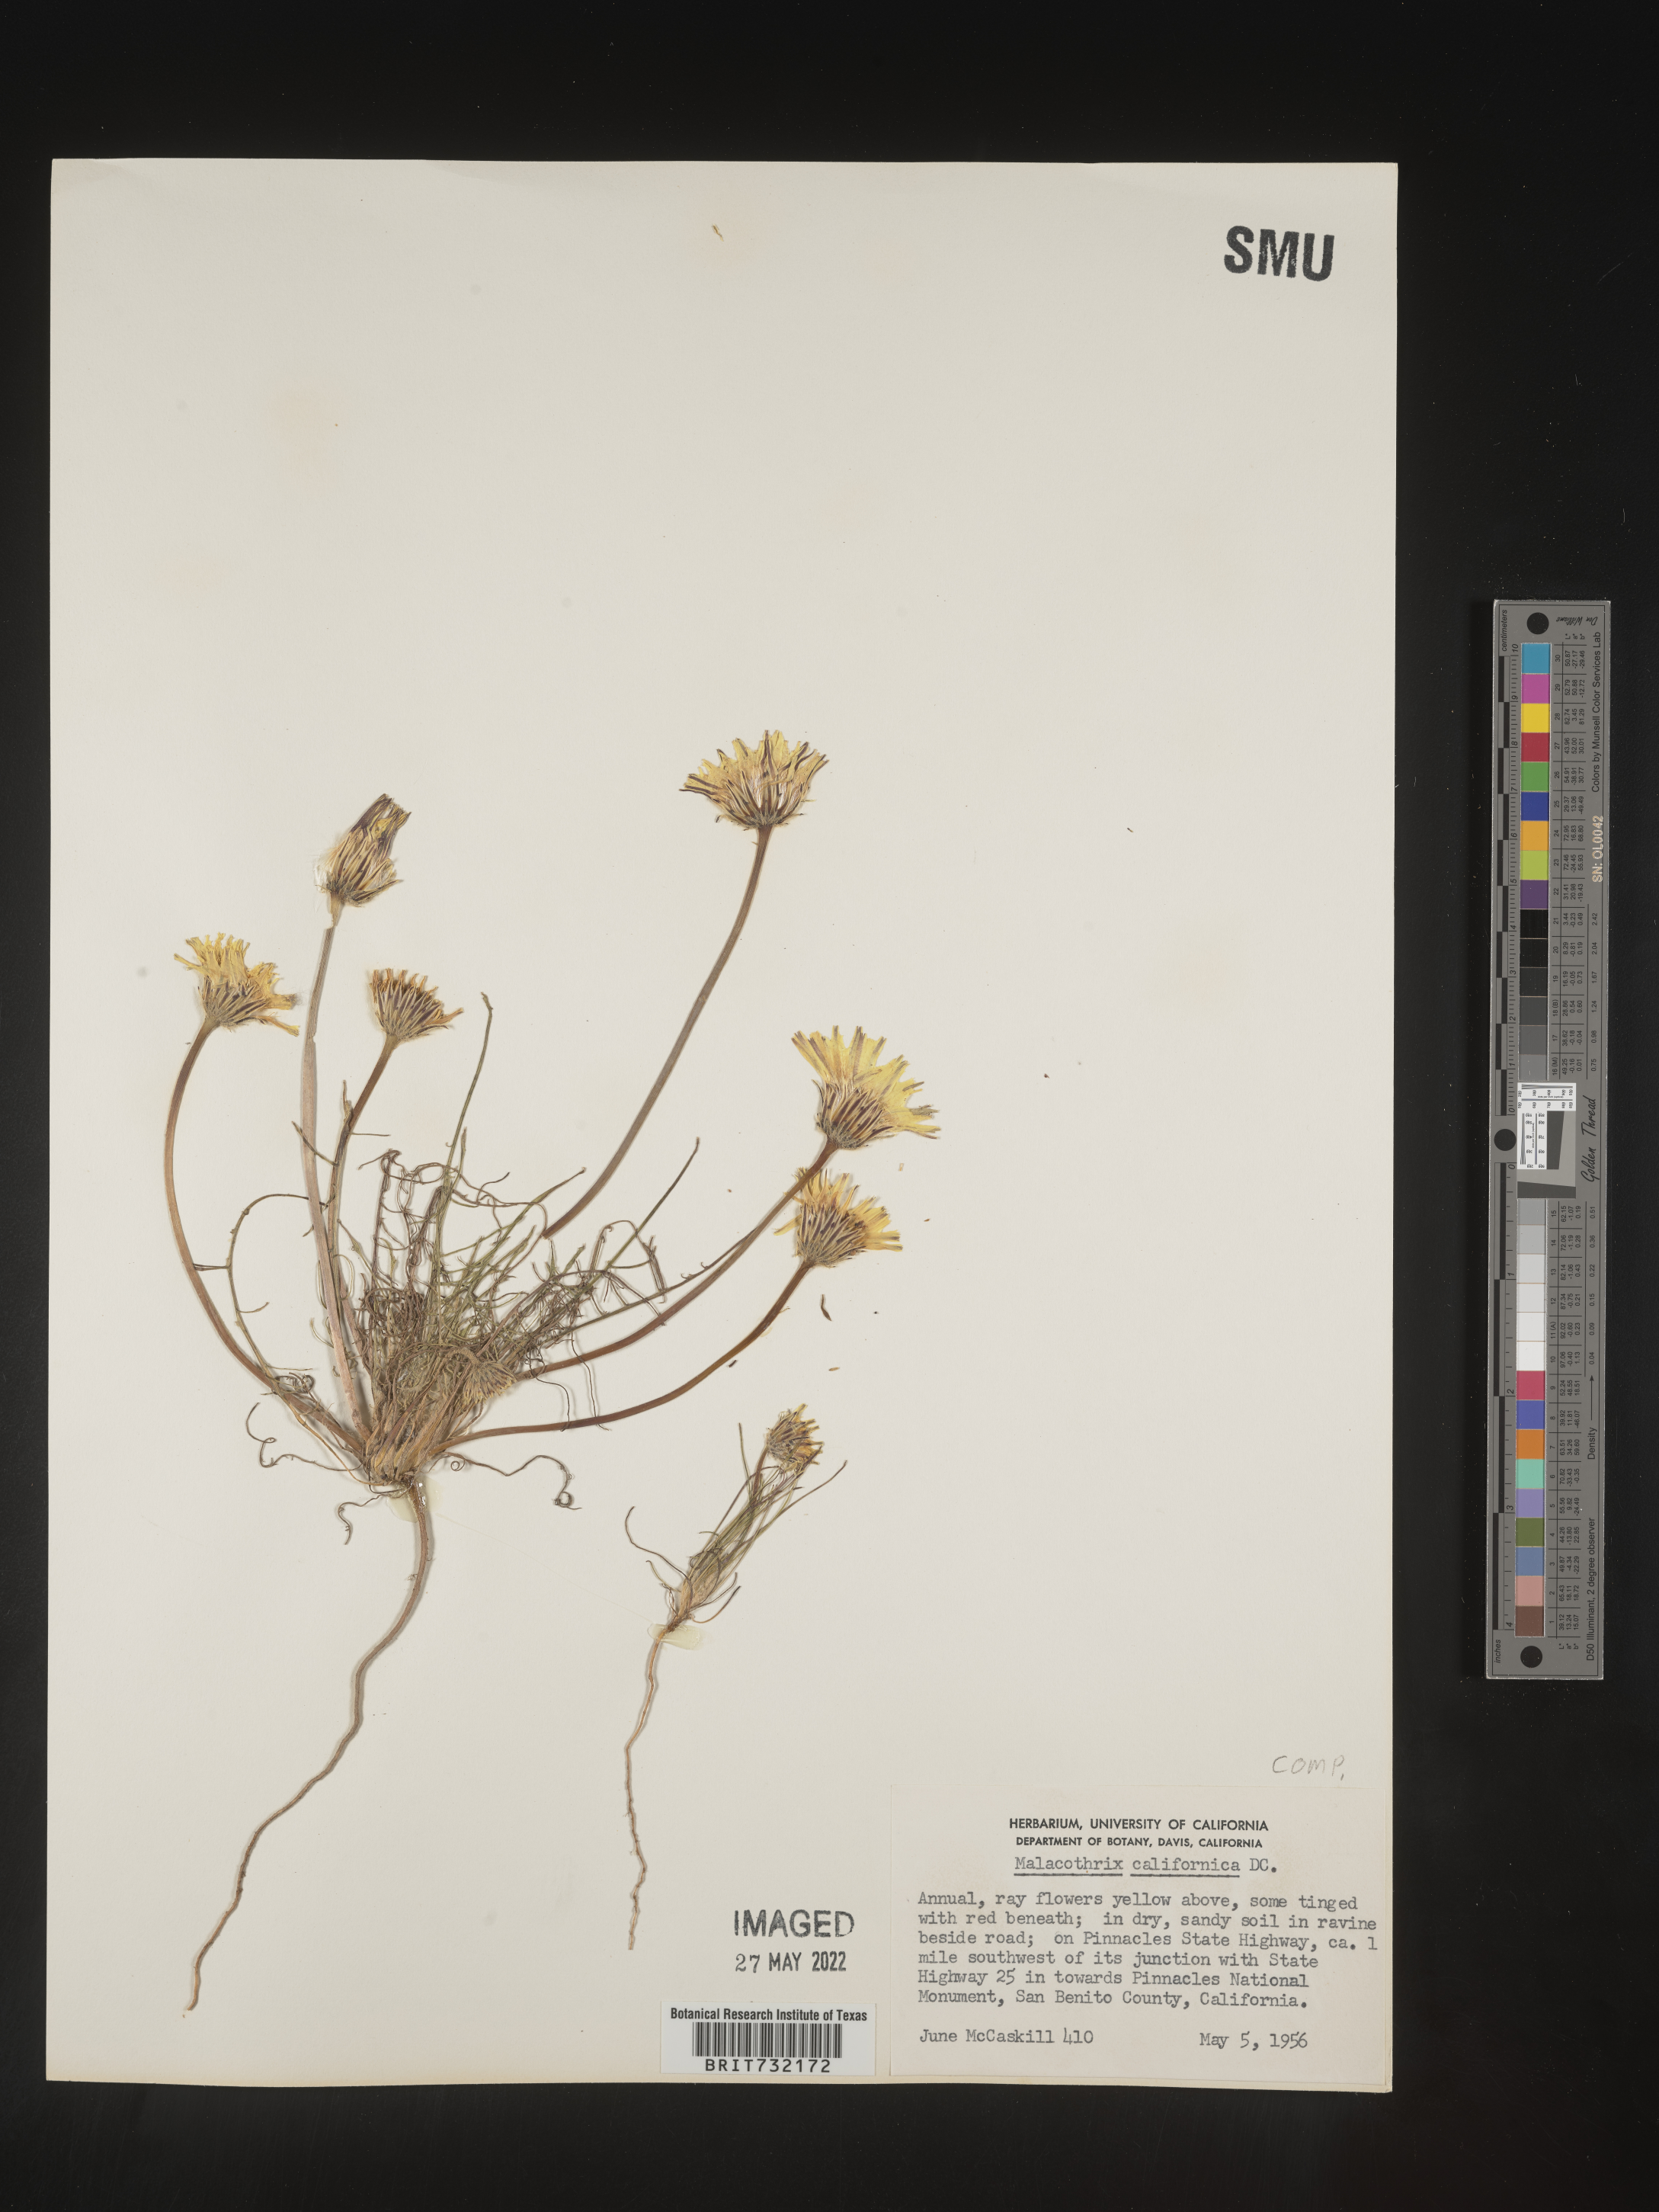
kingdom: Plantae
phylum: Tracheophyta
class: Magnoliopsida
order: Asterales
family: Asteraceae
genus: Malacothrix
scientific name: Malacothrix
